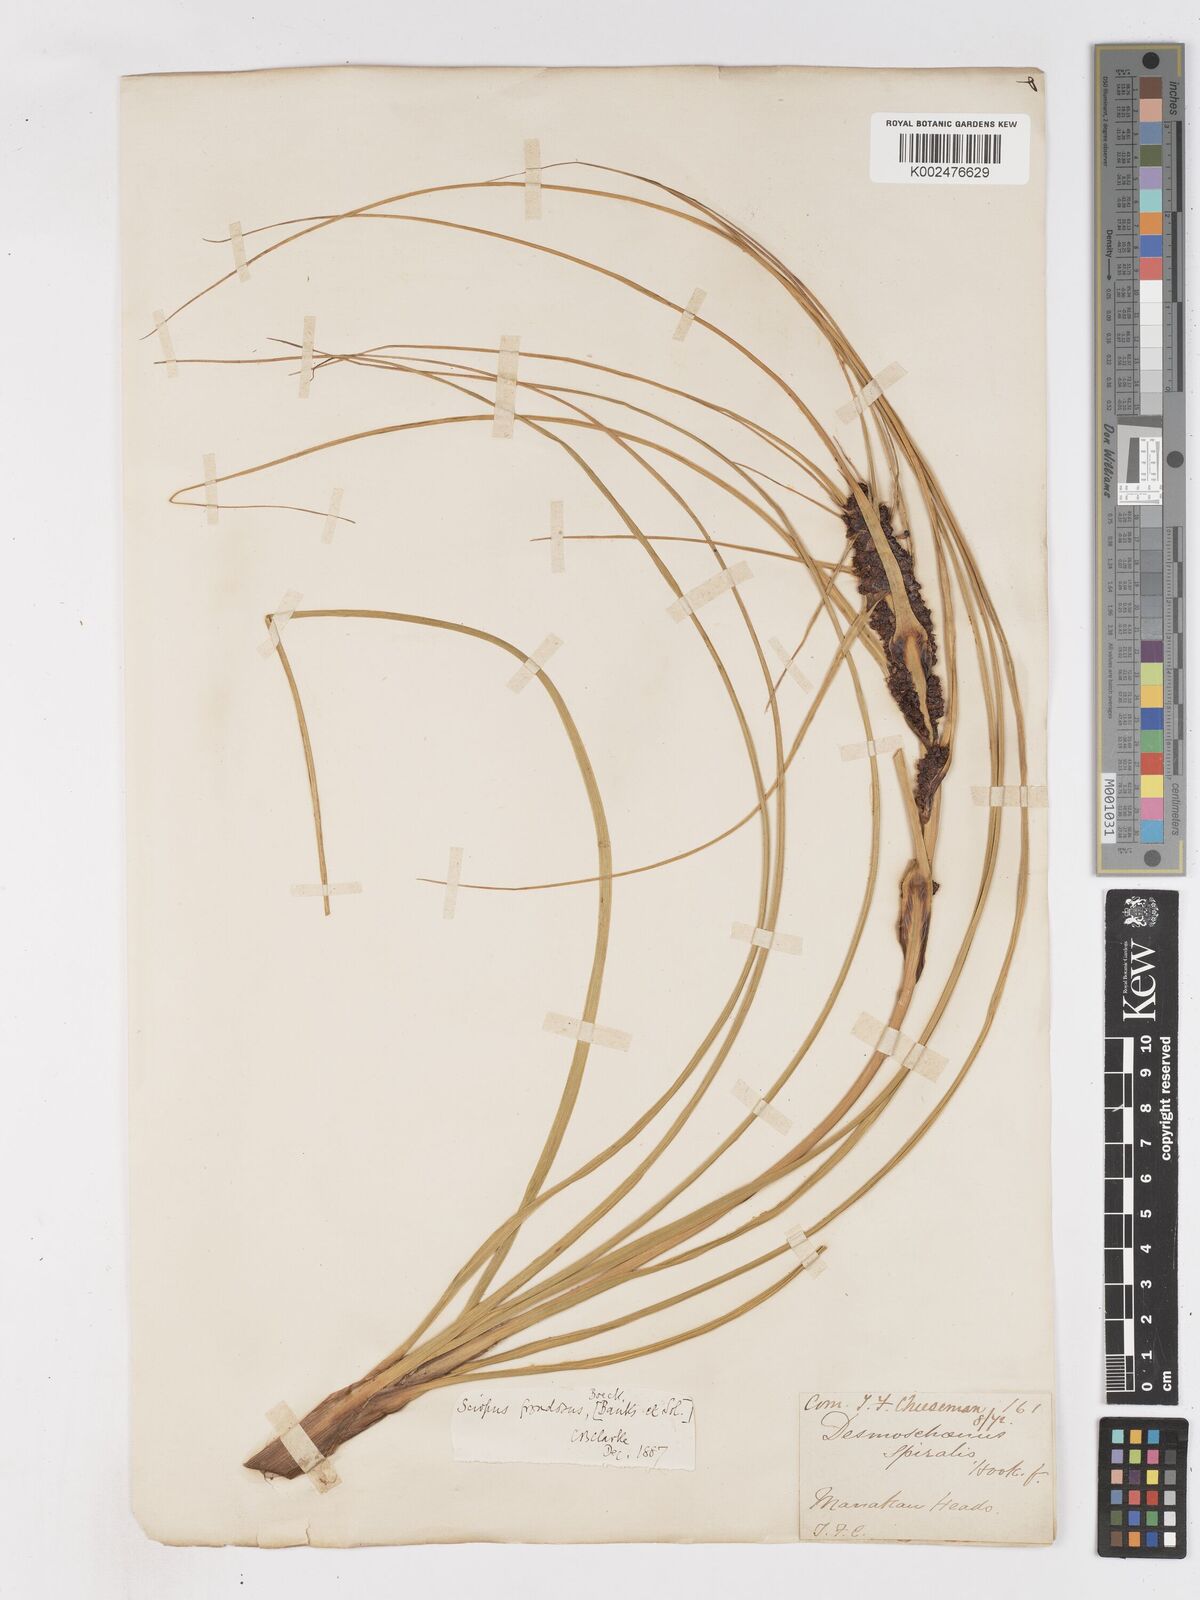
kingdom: Plantae
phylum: Tracheophyta
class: Liliopsida
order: Poales
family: Cyperaceae
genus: Ficinia
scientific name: Ficinia
